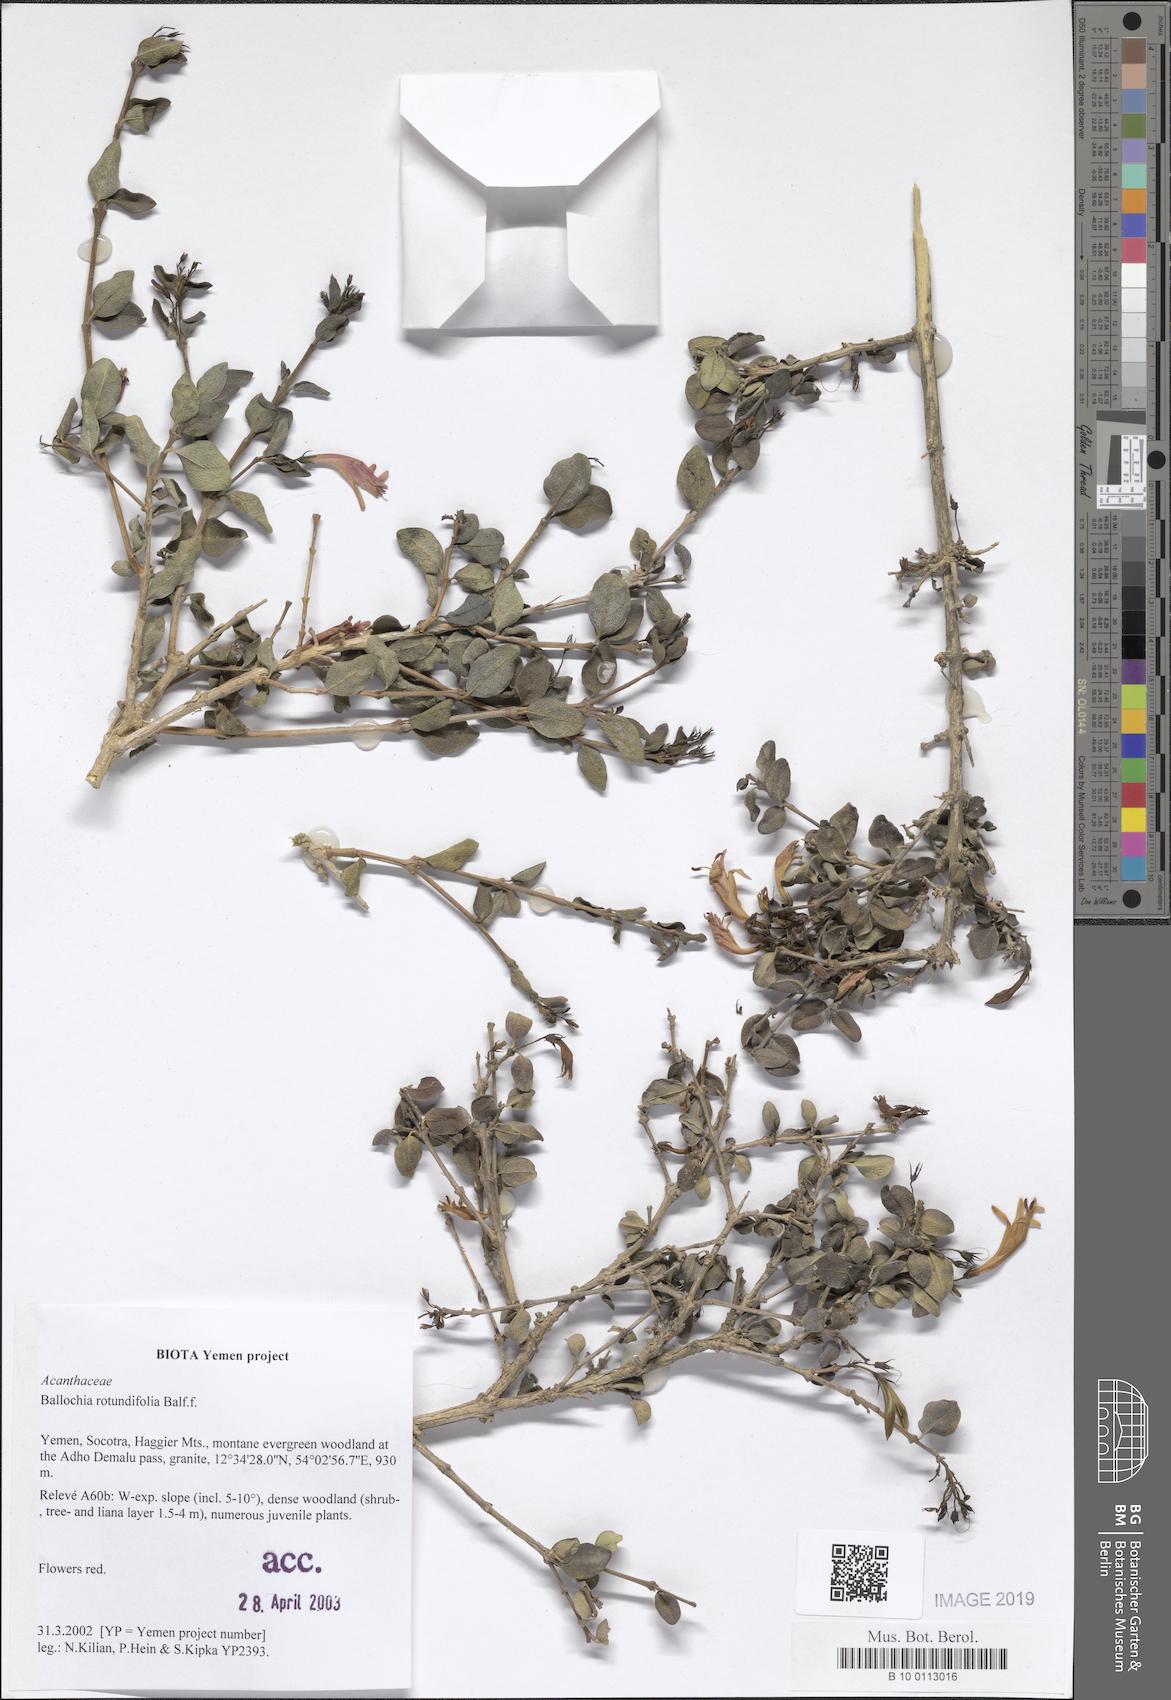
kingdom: Plantae
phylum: Tracheophyta
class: Magnoliopsida
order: Lamiales
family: Acanthaceae
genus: Ballochia
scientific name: Ballochia rotundifolia
